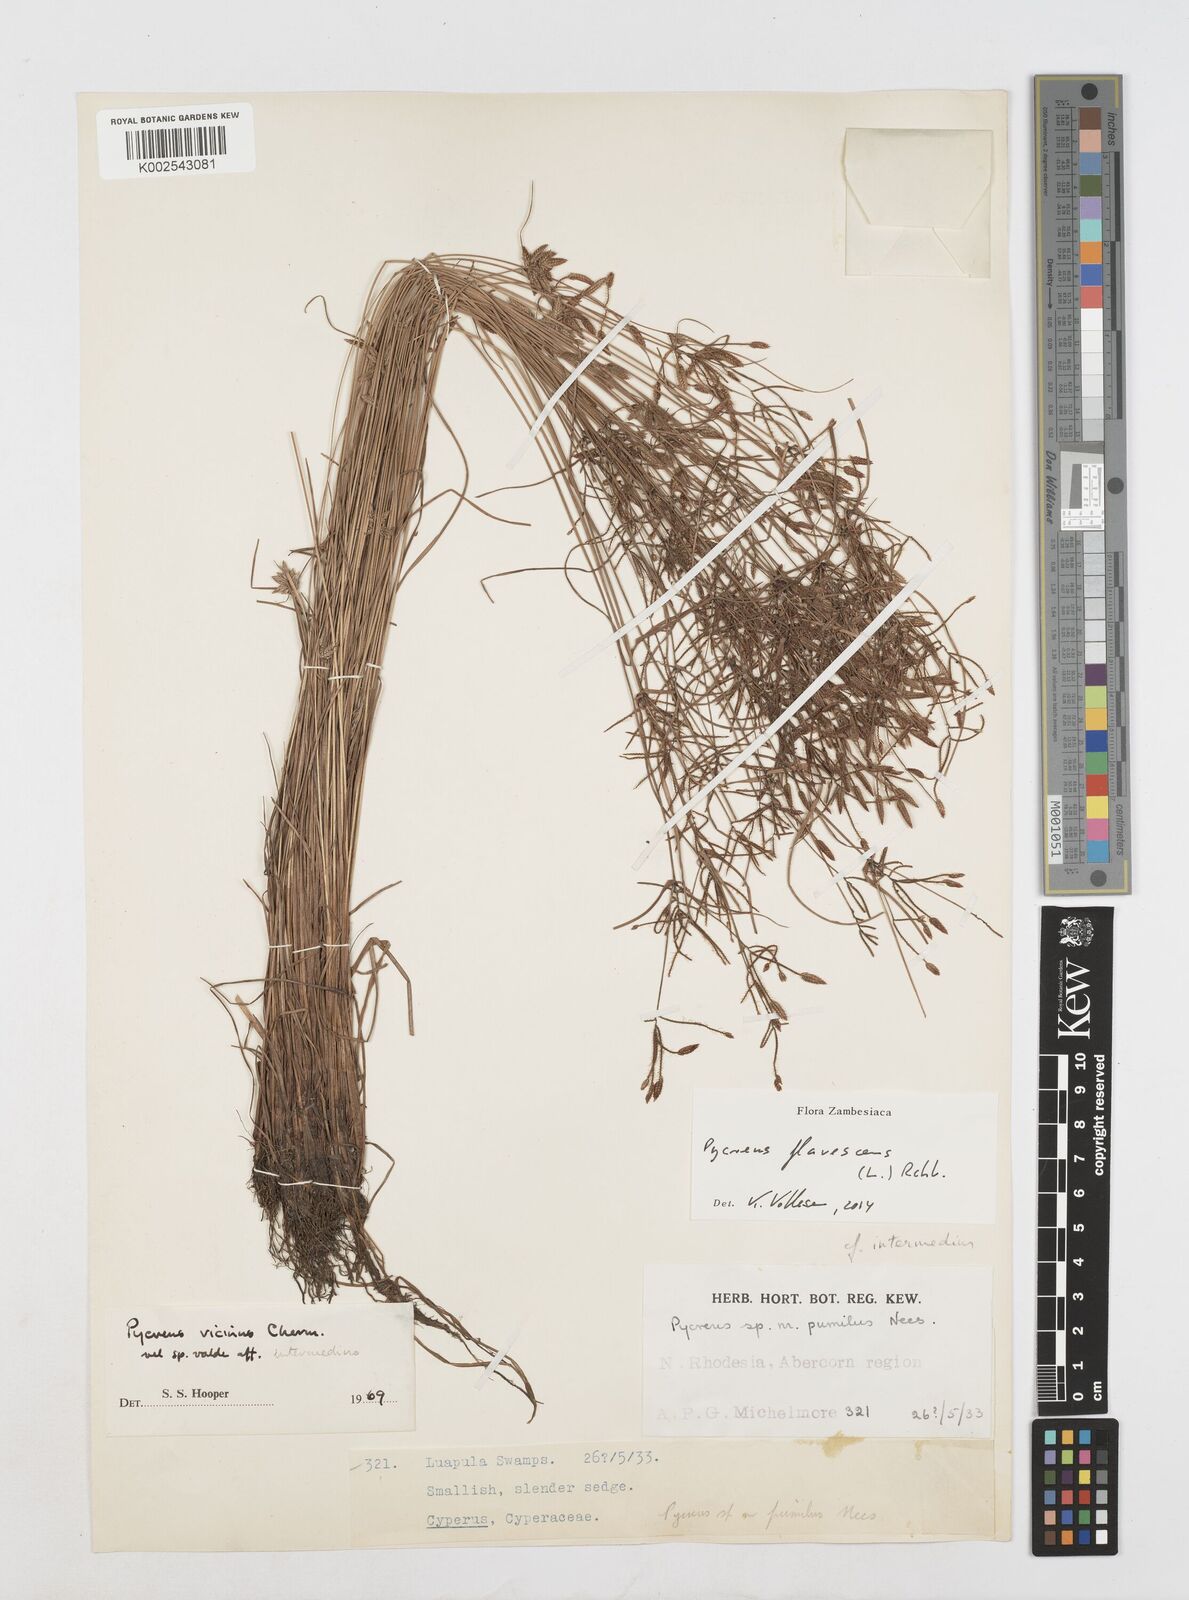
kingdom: Plantae
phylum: Tracheophyta
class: Liliopsida
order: Poales
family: Cyperaceae
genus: Cyperus
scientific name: Cyperus flavescens
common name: Yellow galingale
